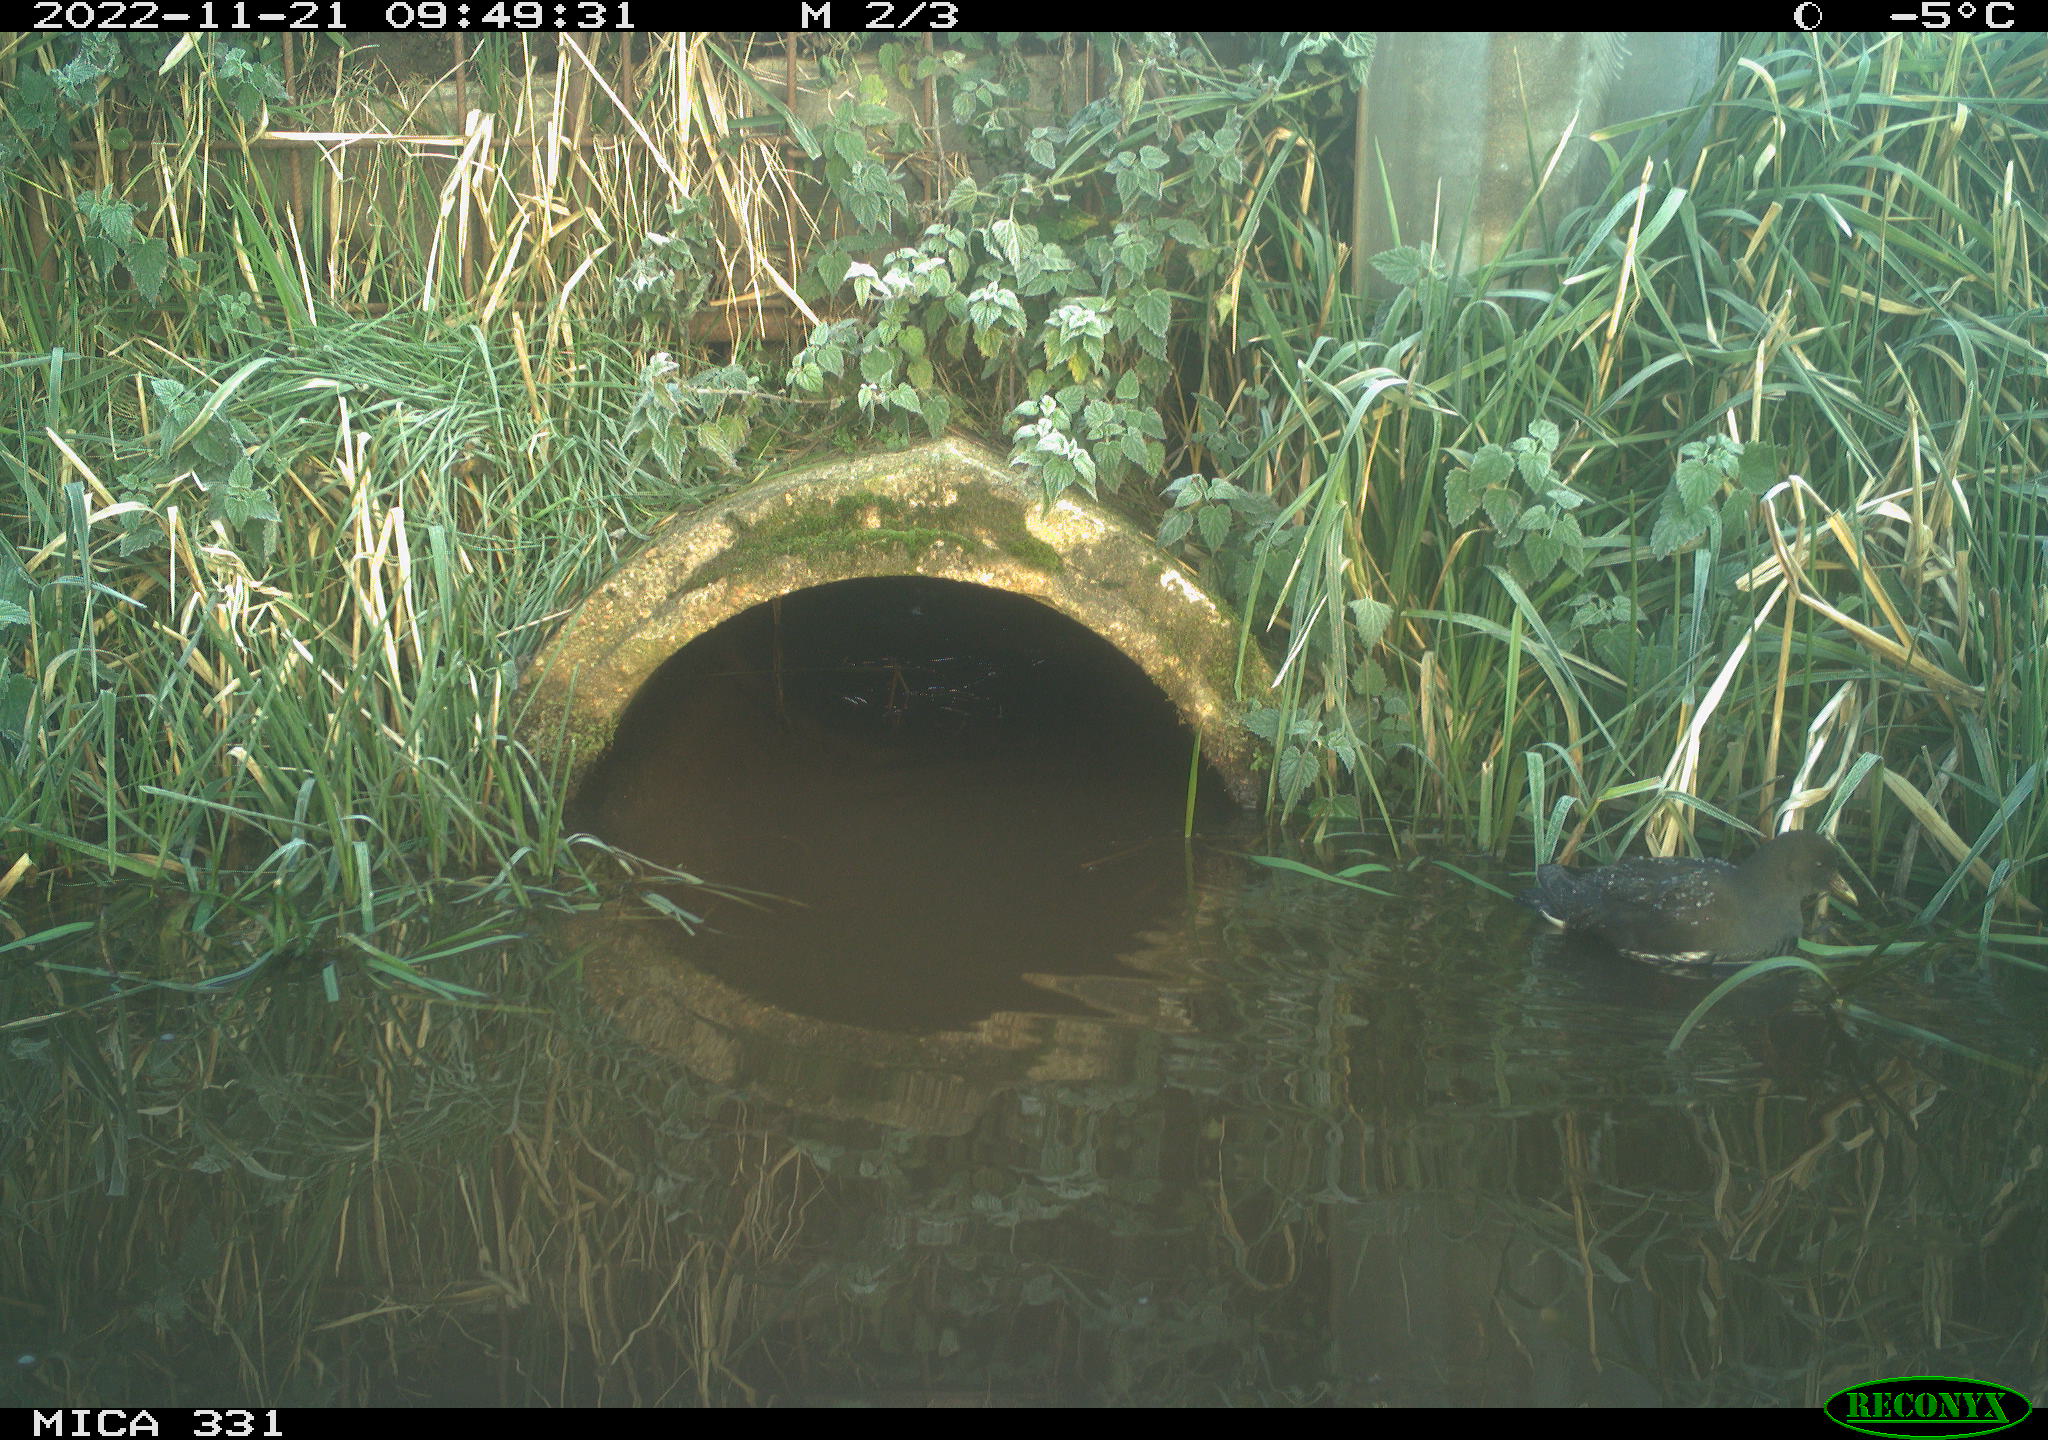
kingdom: Animalia
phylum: Chordata
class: Aves
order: Gruiformes
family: Rallidae
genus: Gallinula
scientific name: Gallinula chloropus
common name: Common moorhen
